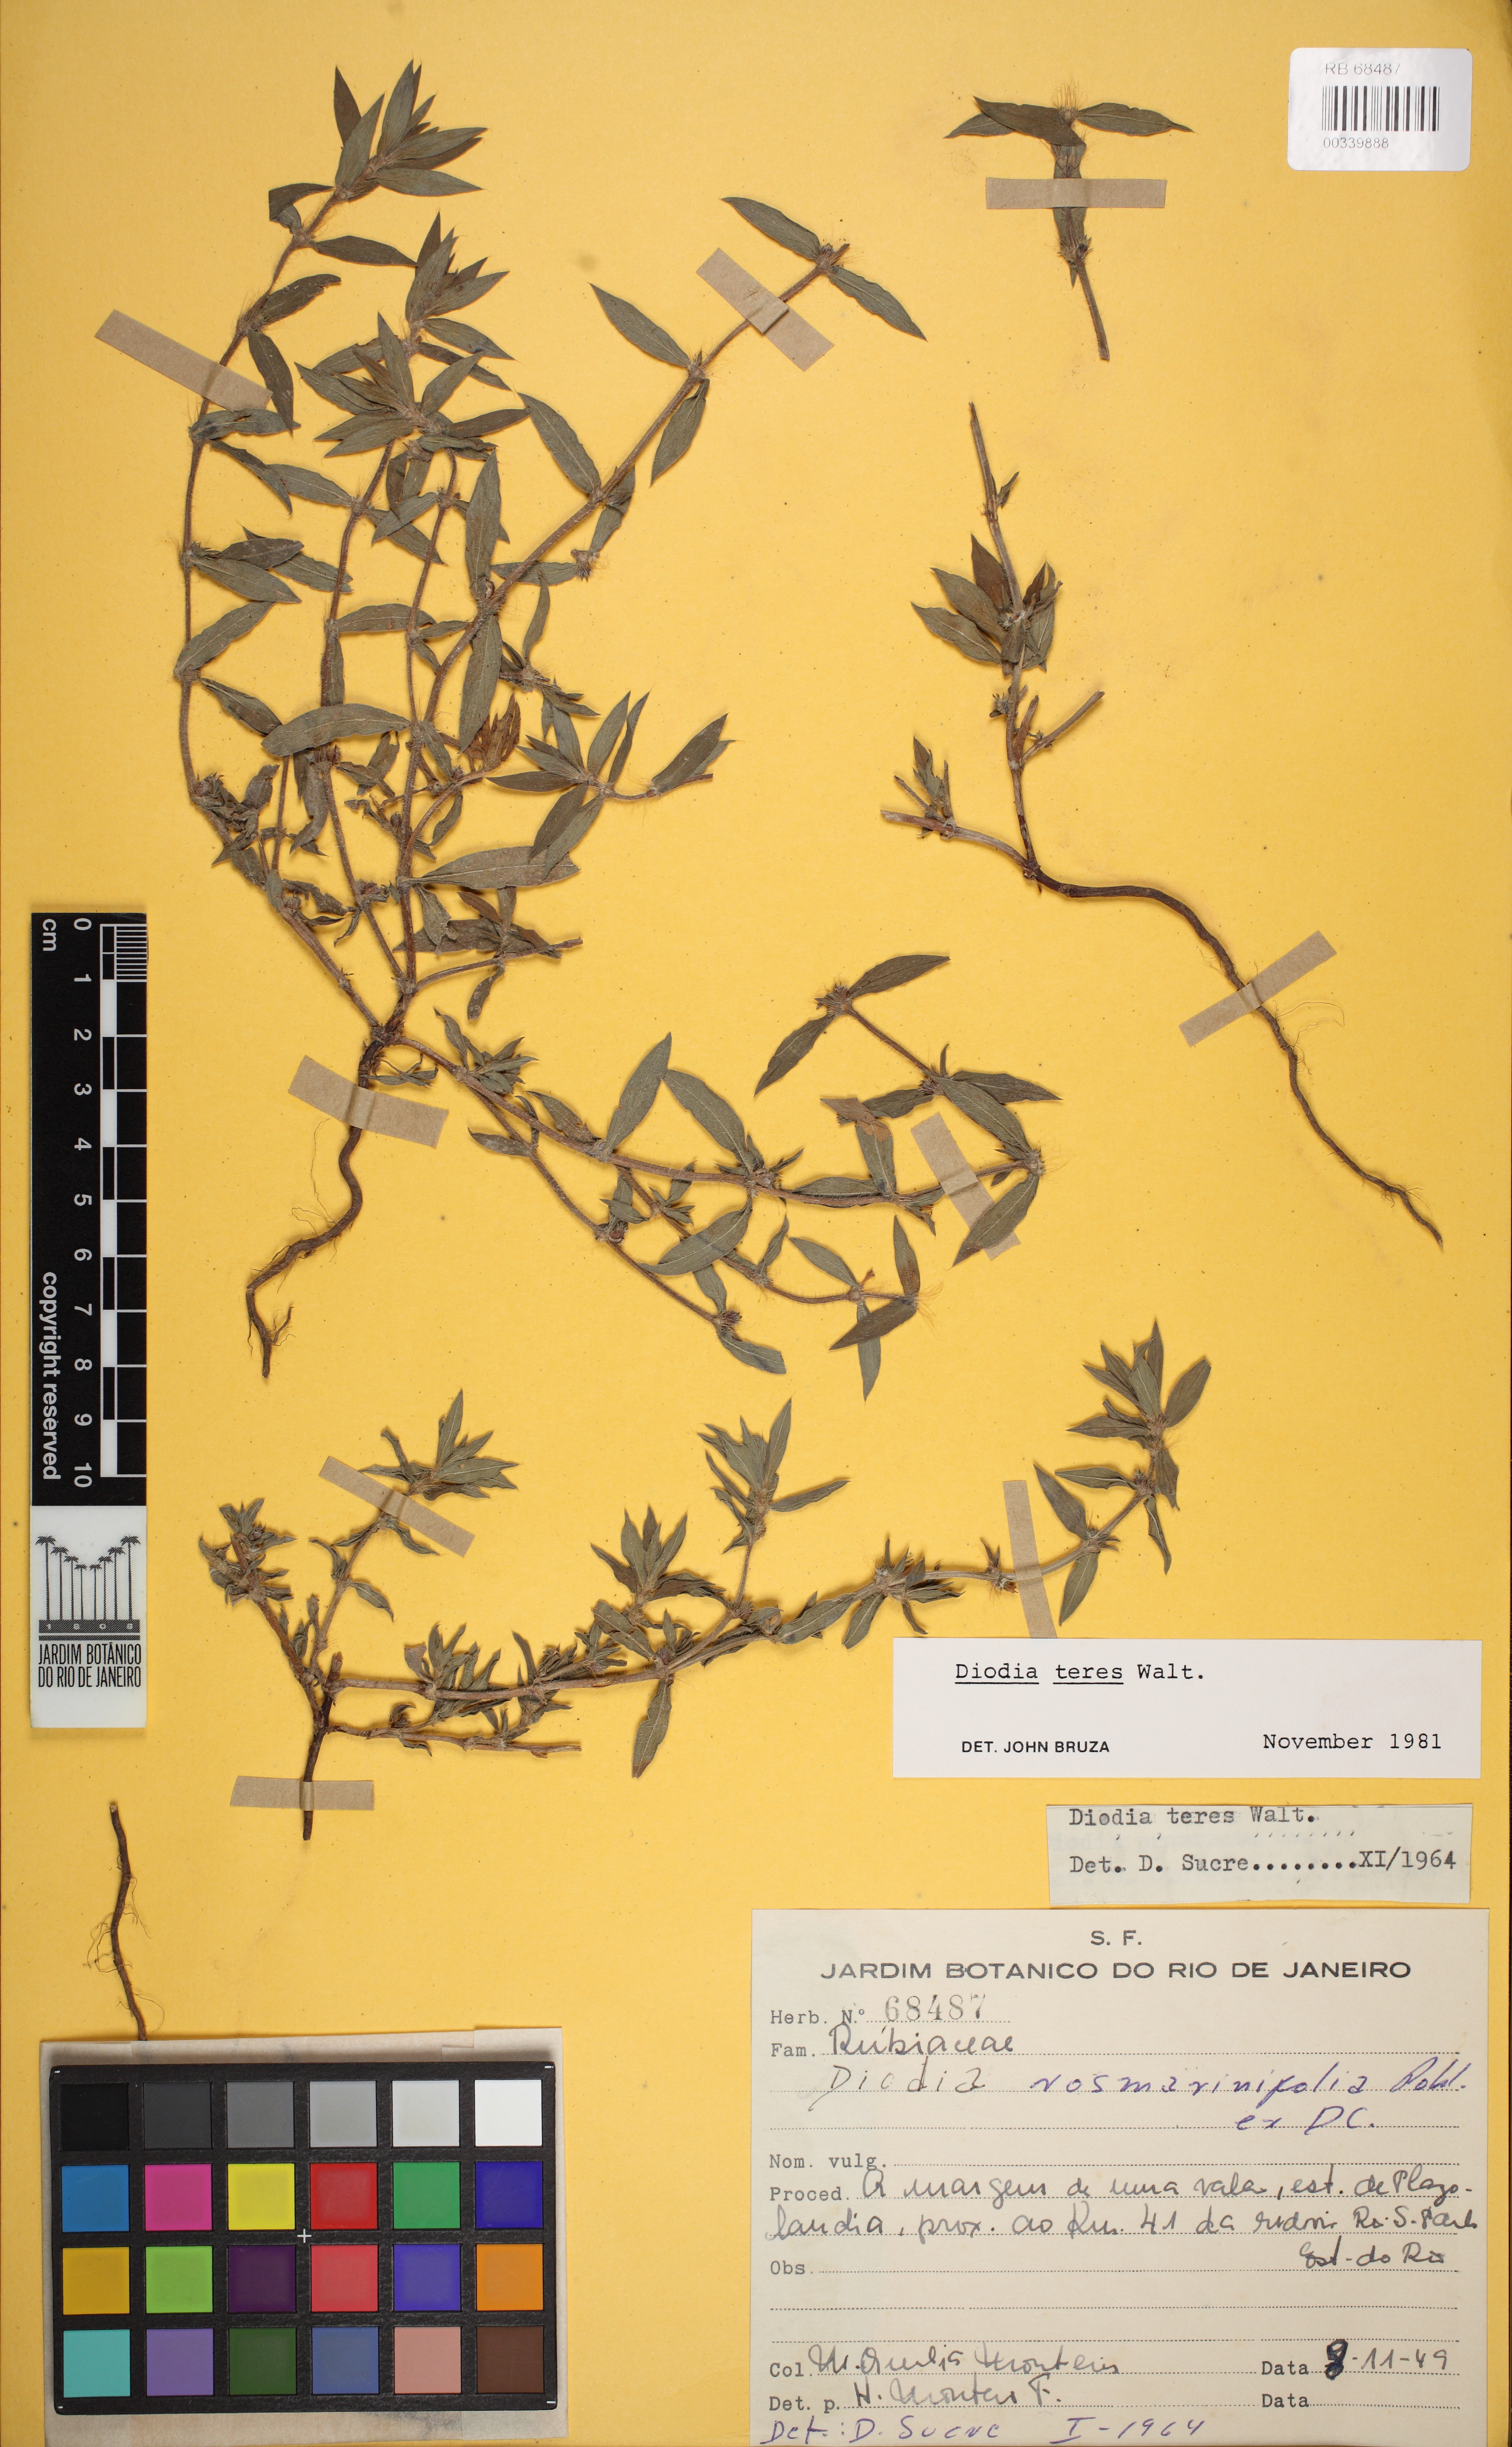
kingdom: Plantae
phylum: Tracheophyta
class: Magnoliopsida
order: Gentianales
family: Rubiaceae
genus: Hexasepalum
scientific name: Hexasepalum teres
